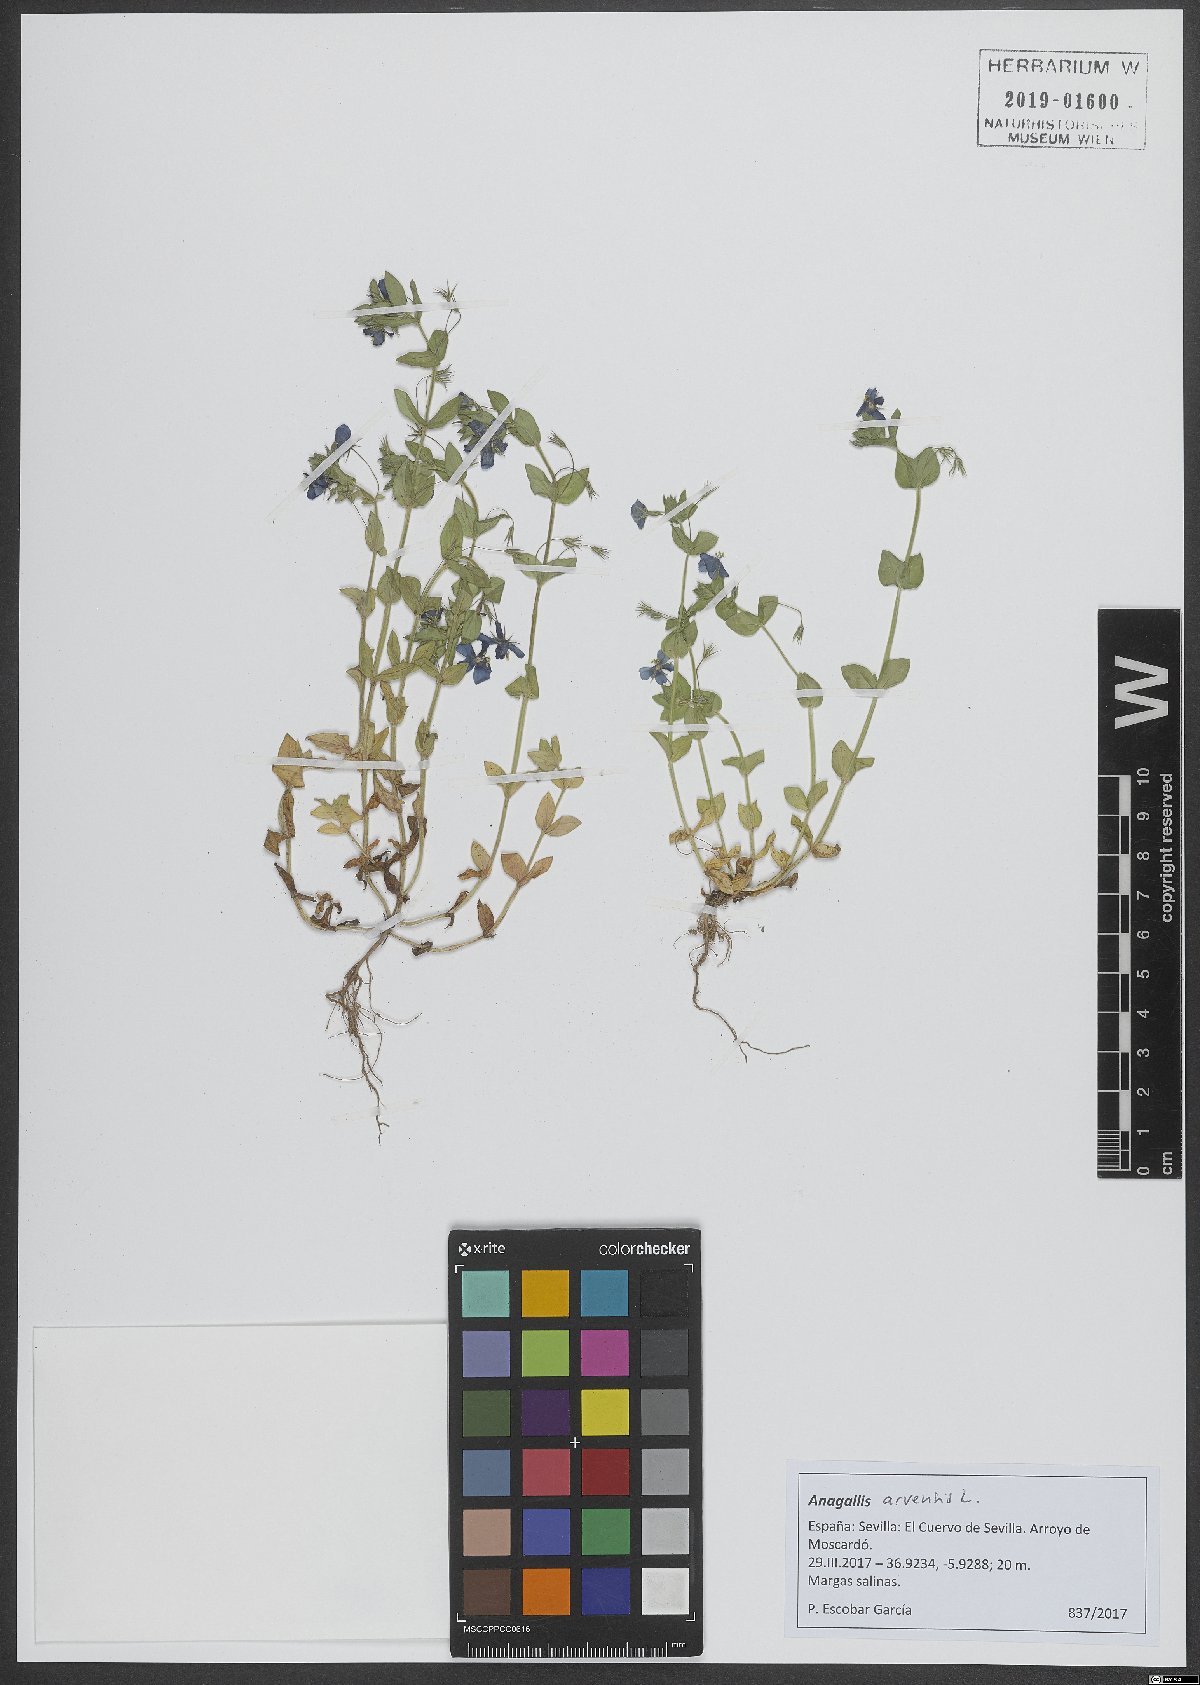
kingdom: Plantae
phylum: Tracheophyta
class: Magnoliopsida
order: Ericales
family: Primulaceae
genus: Lysimachia
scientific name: Lysimachia arvensis
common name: Scarlet pimpernel
